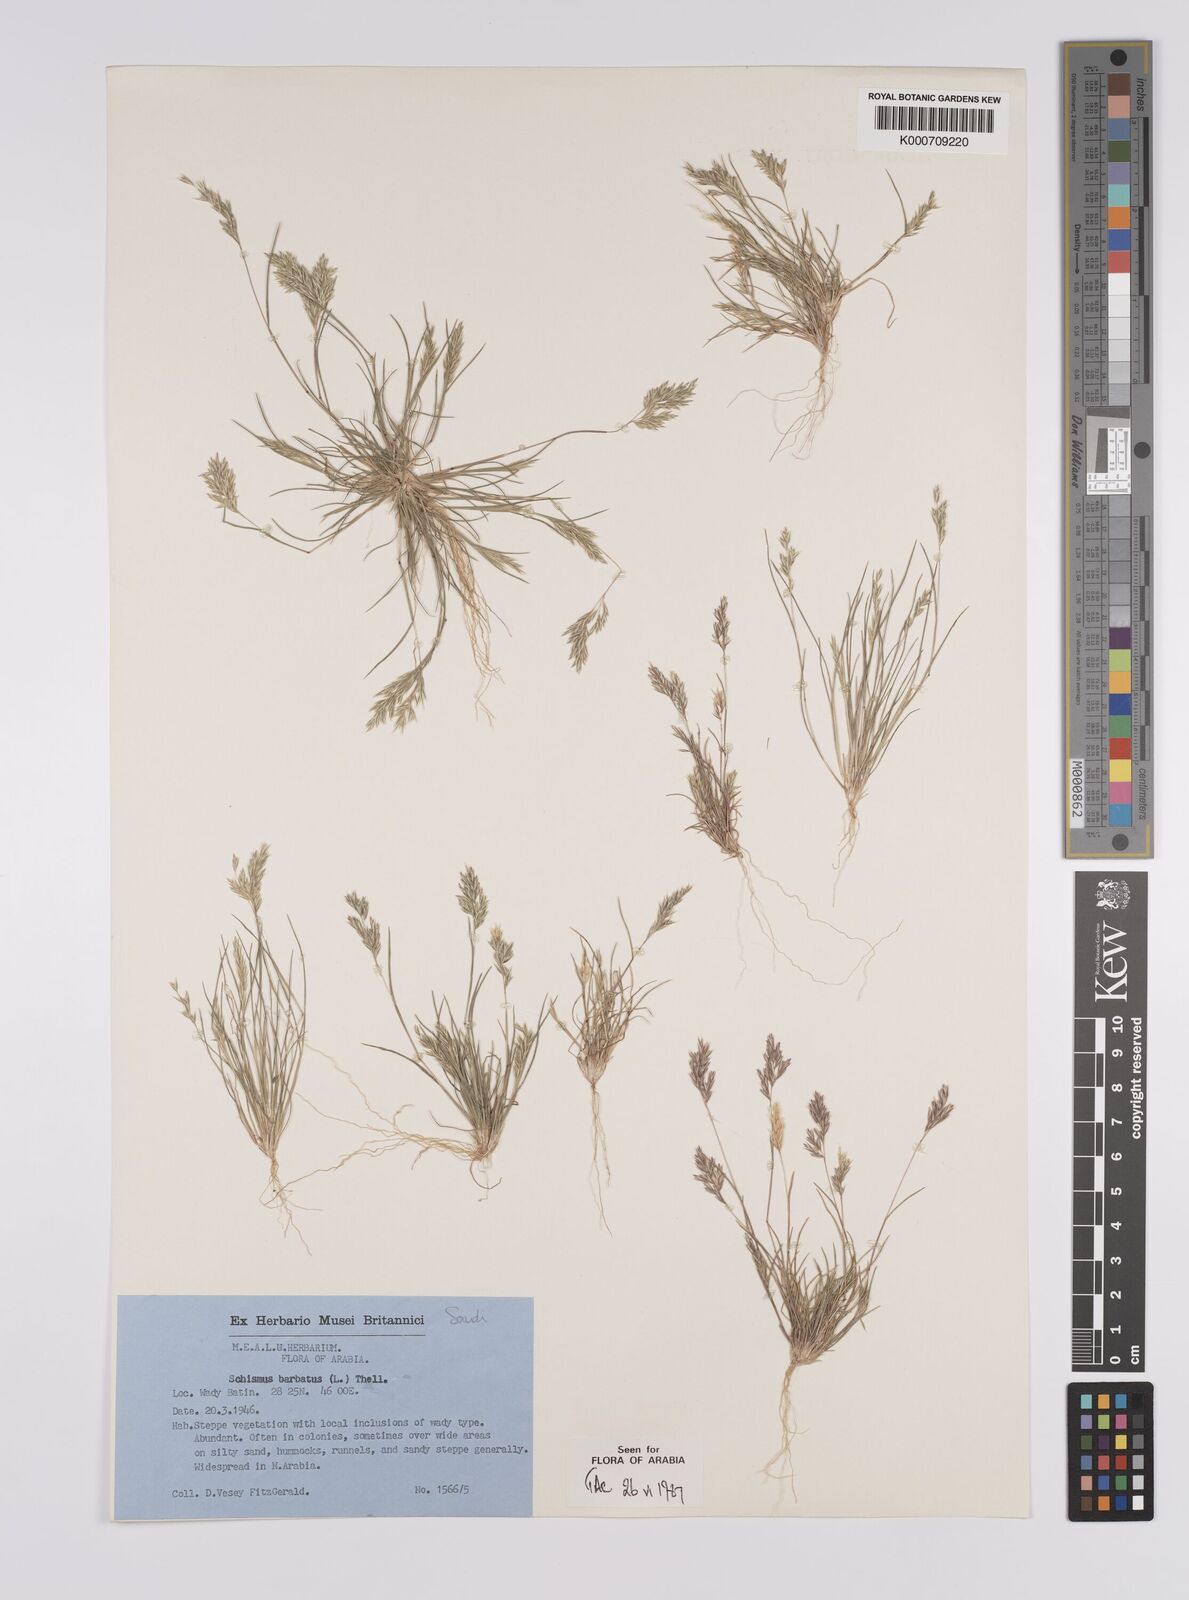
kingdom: Plantae
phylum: Tracheophyta
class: Liliopsida
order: Poales
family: Poaceae
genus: Schismus
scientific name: Schismus barbatus
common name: Kelch-grass
